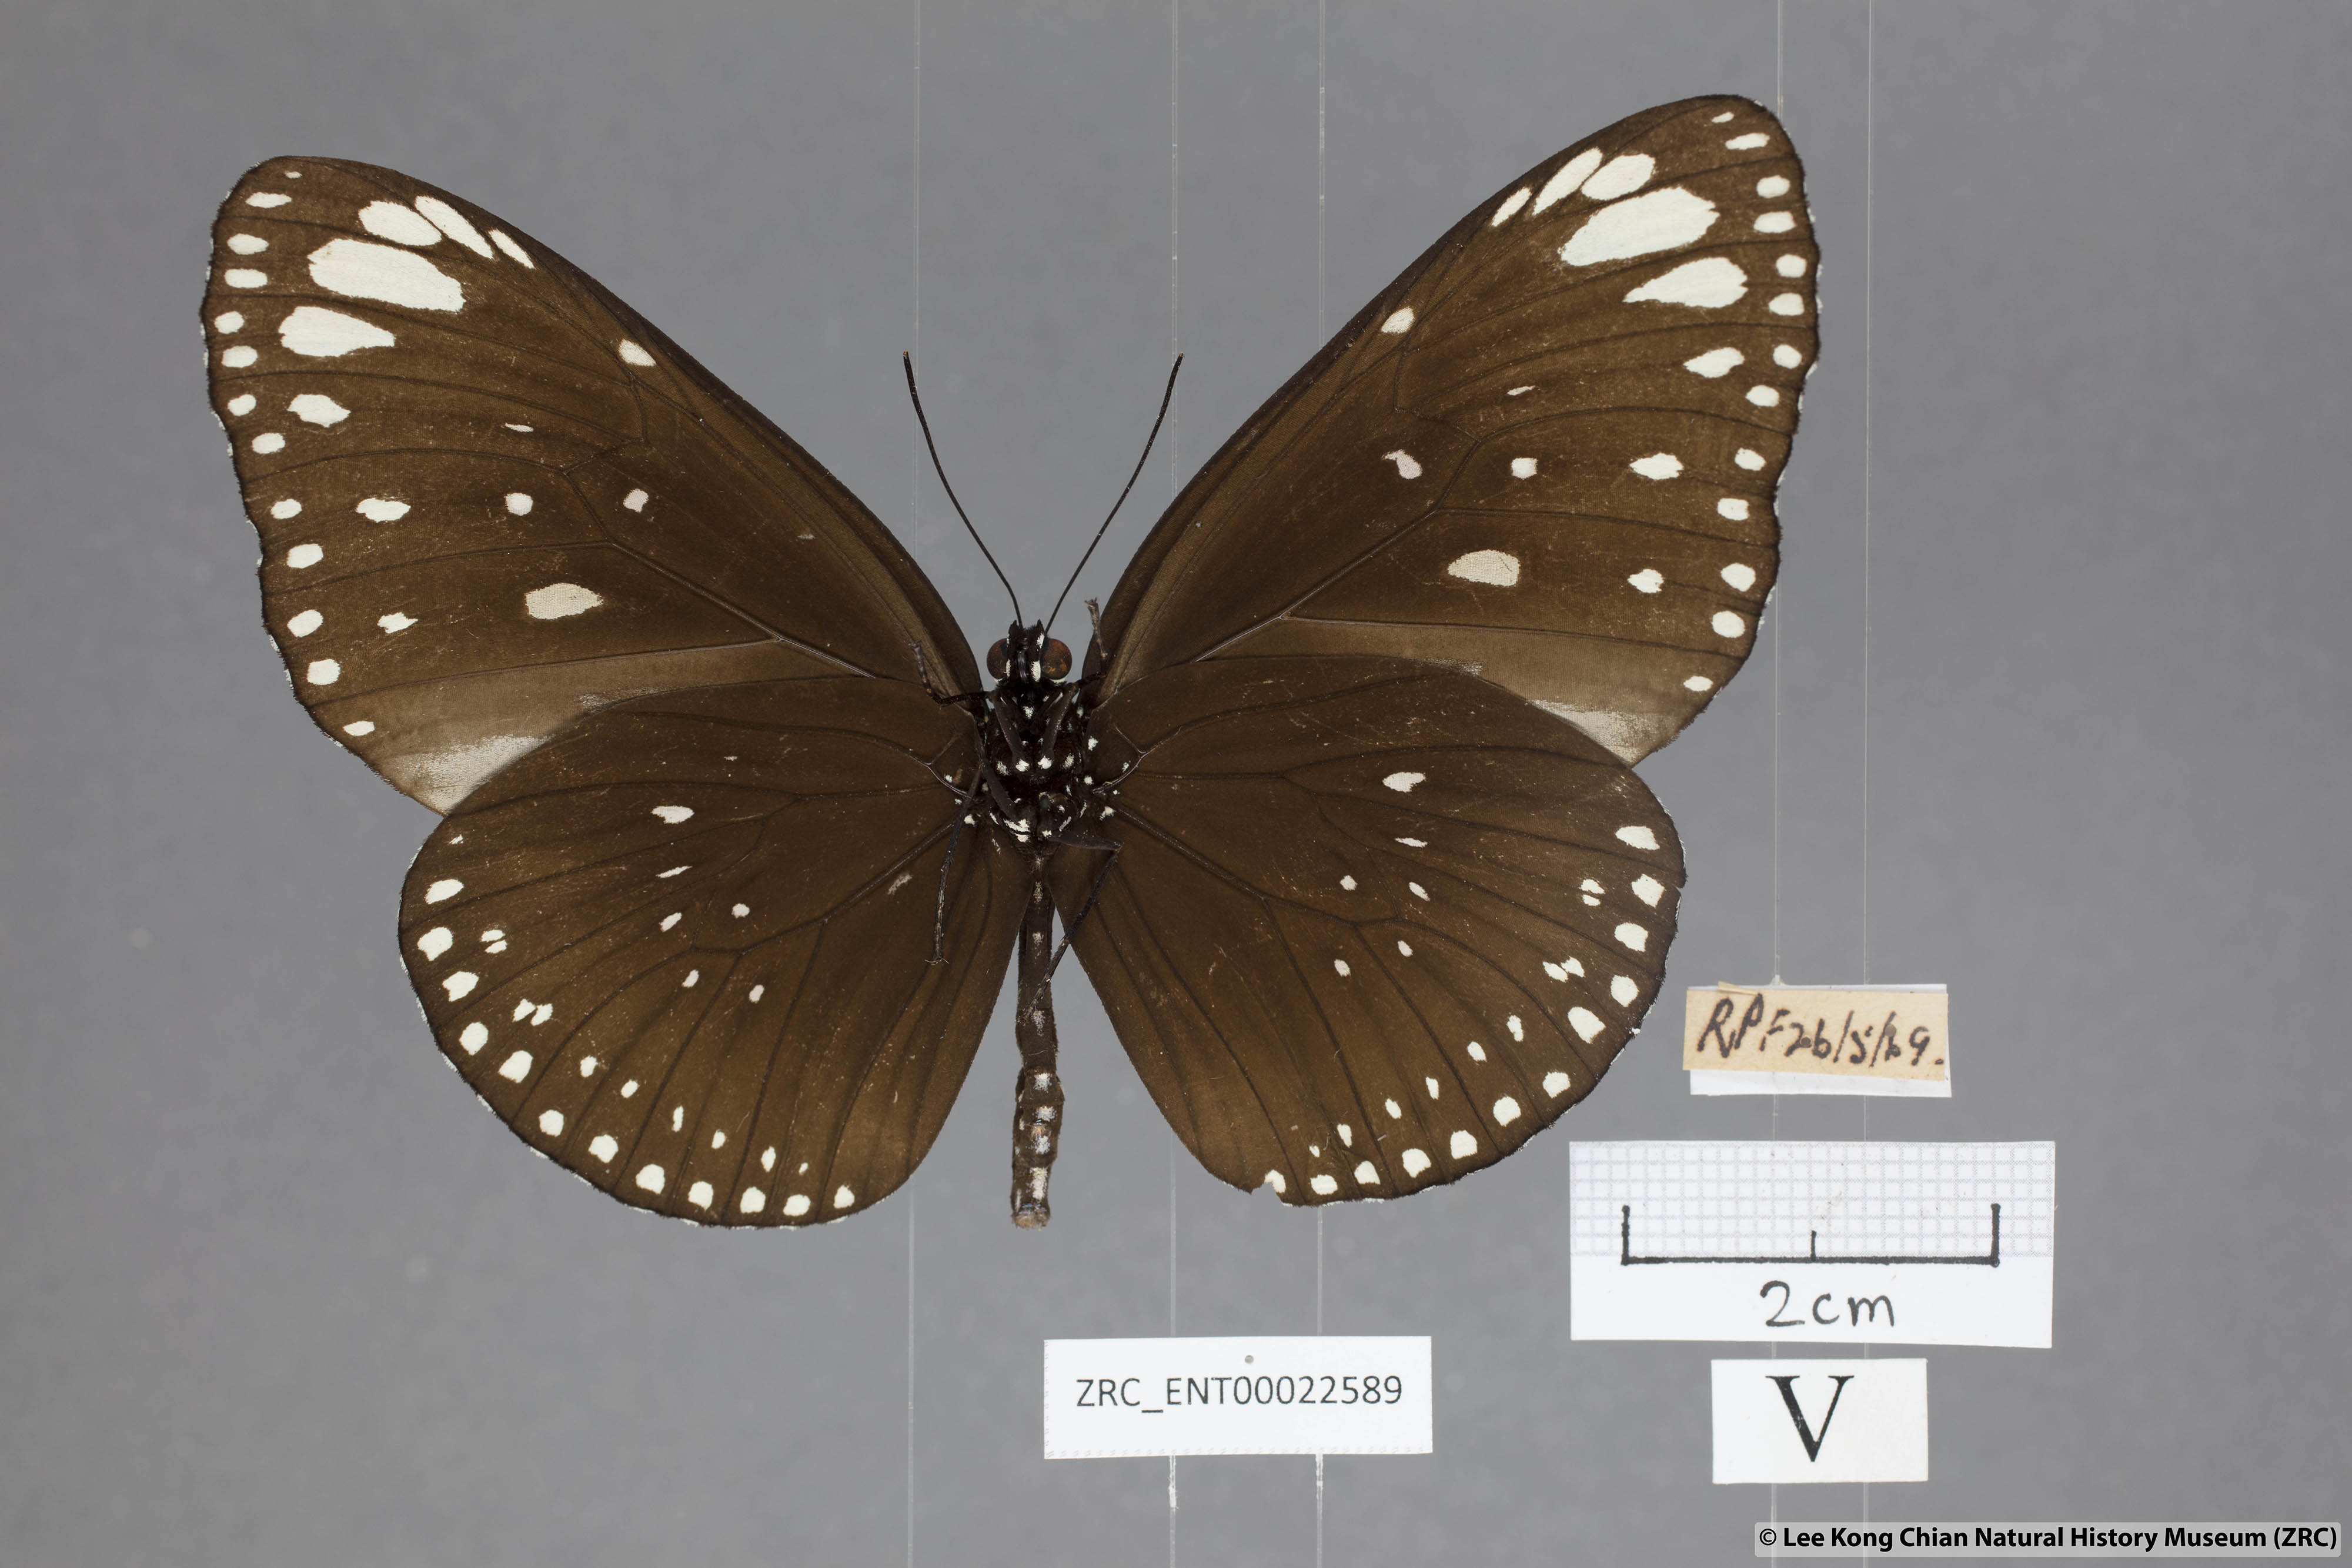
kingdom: Animalia
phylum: Arthropoda
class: Insecta
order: Lepidoptera
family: Nymphalidae
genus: Euploea
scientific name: Euploea crameri
